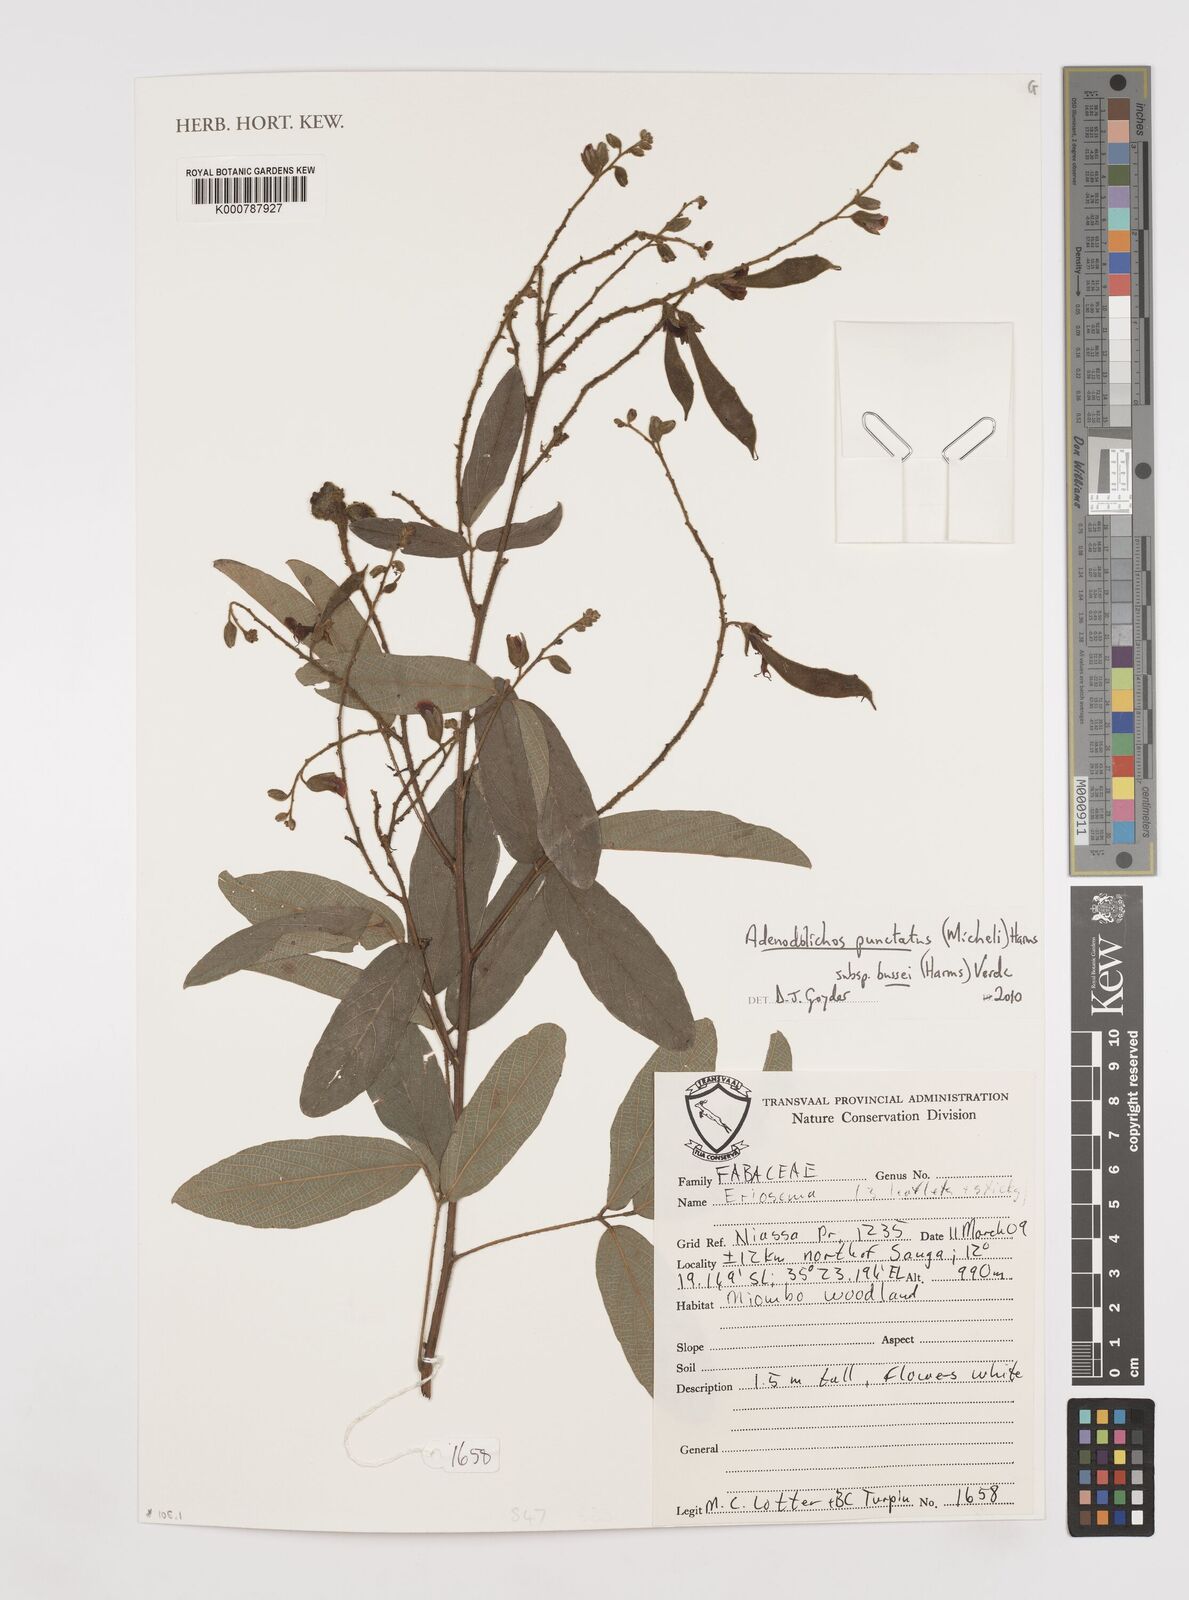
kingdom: Plantae
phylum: Tracheophyta
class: Magnoliopsida
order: Fabales
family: Fabaceae
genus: Adenodolichos
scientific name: Adenodolichos punctatus
